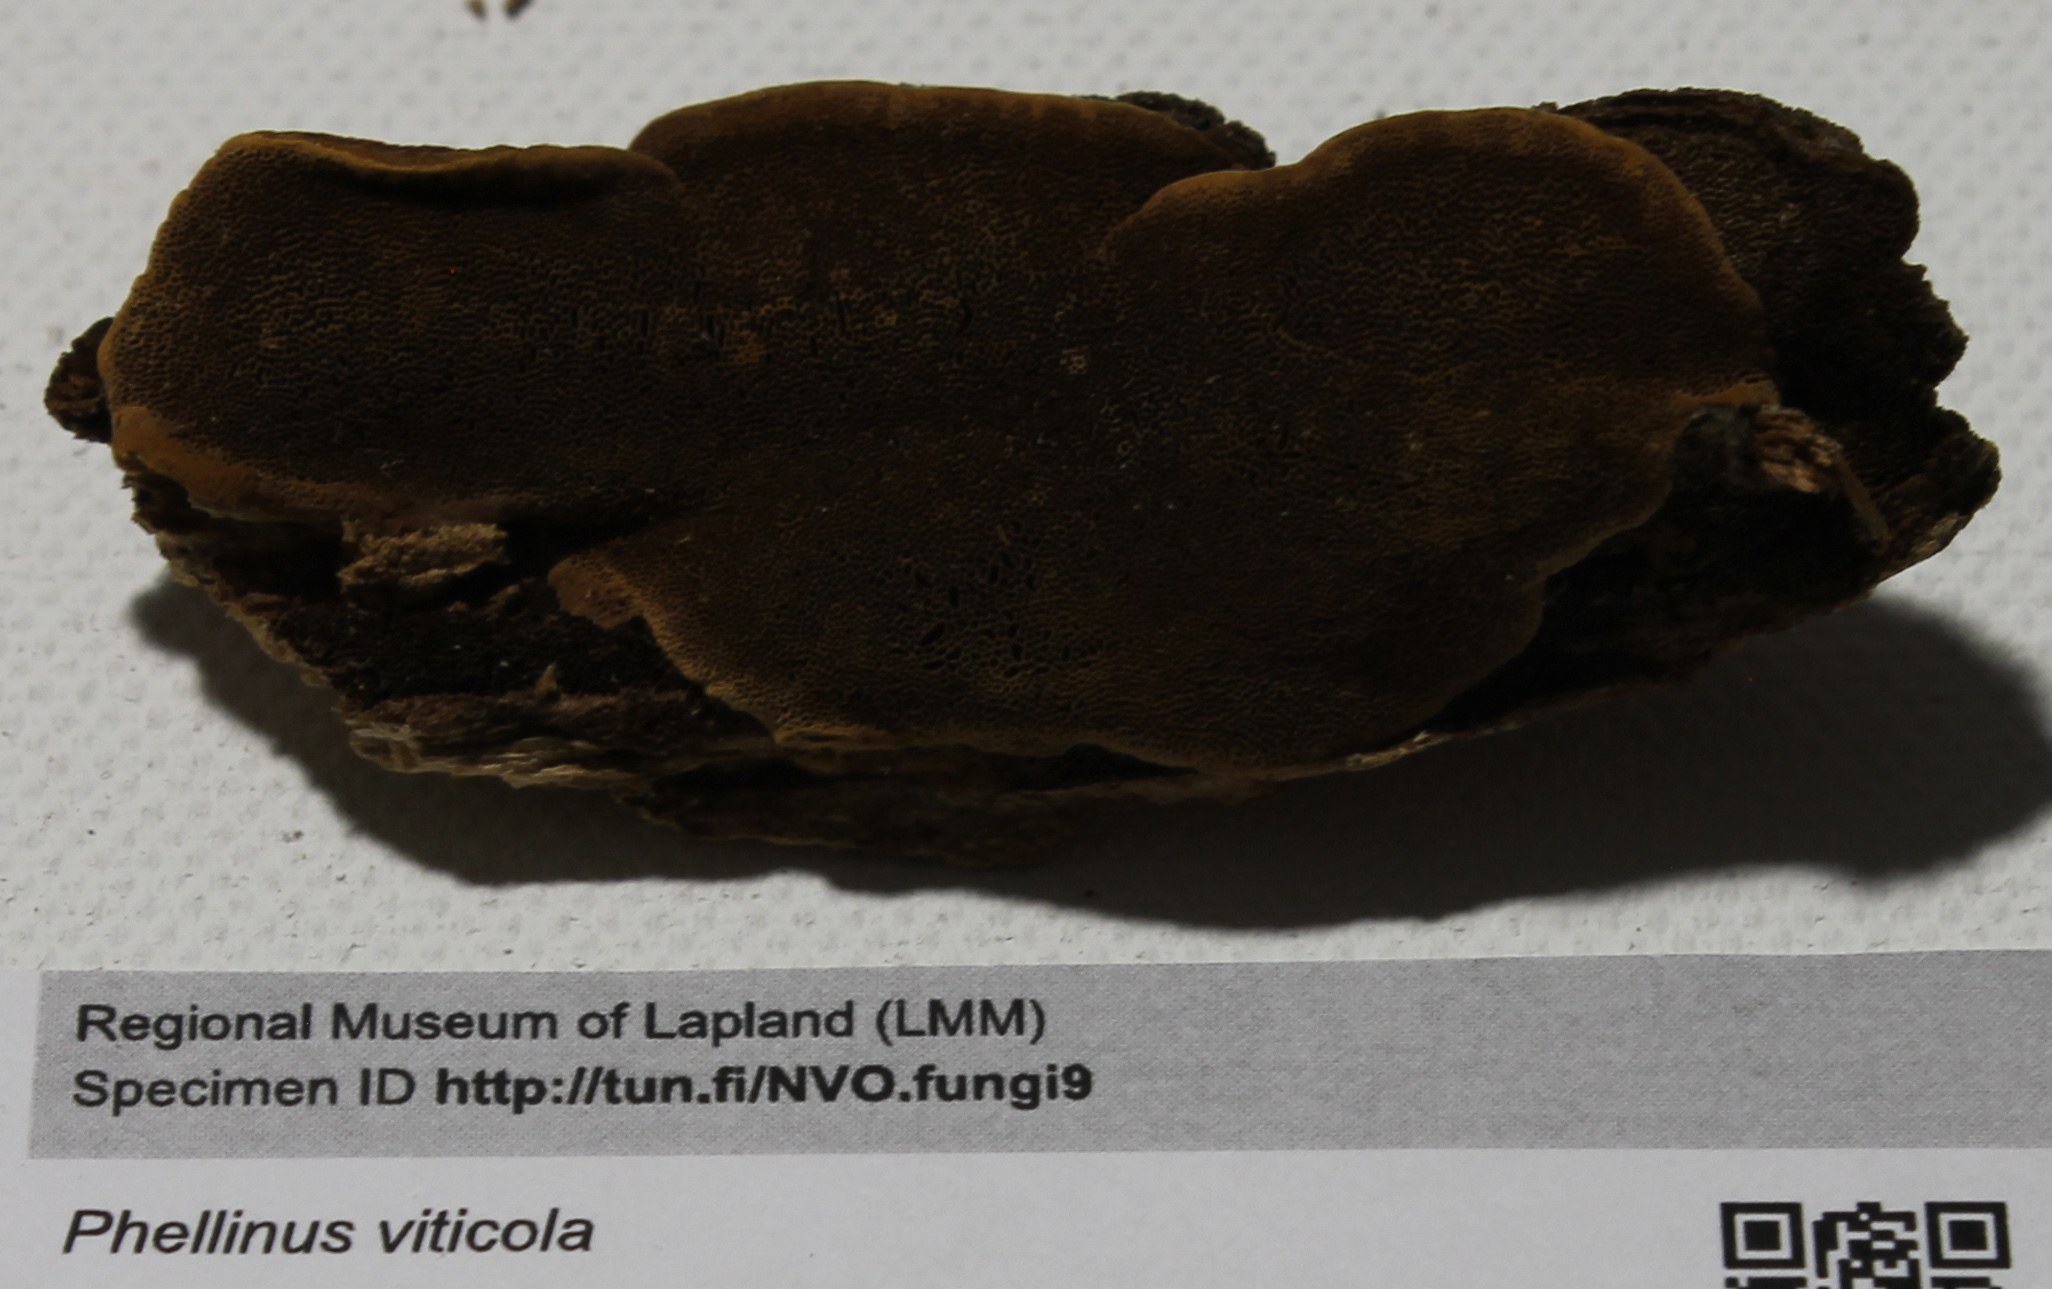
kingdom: Fungi
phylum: Basidiomycota
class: Agaricomycetes
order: Hymenochaetales
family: Hymenochaetaceae
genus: Phellinus
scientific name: Phellinus viticola
